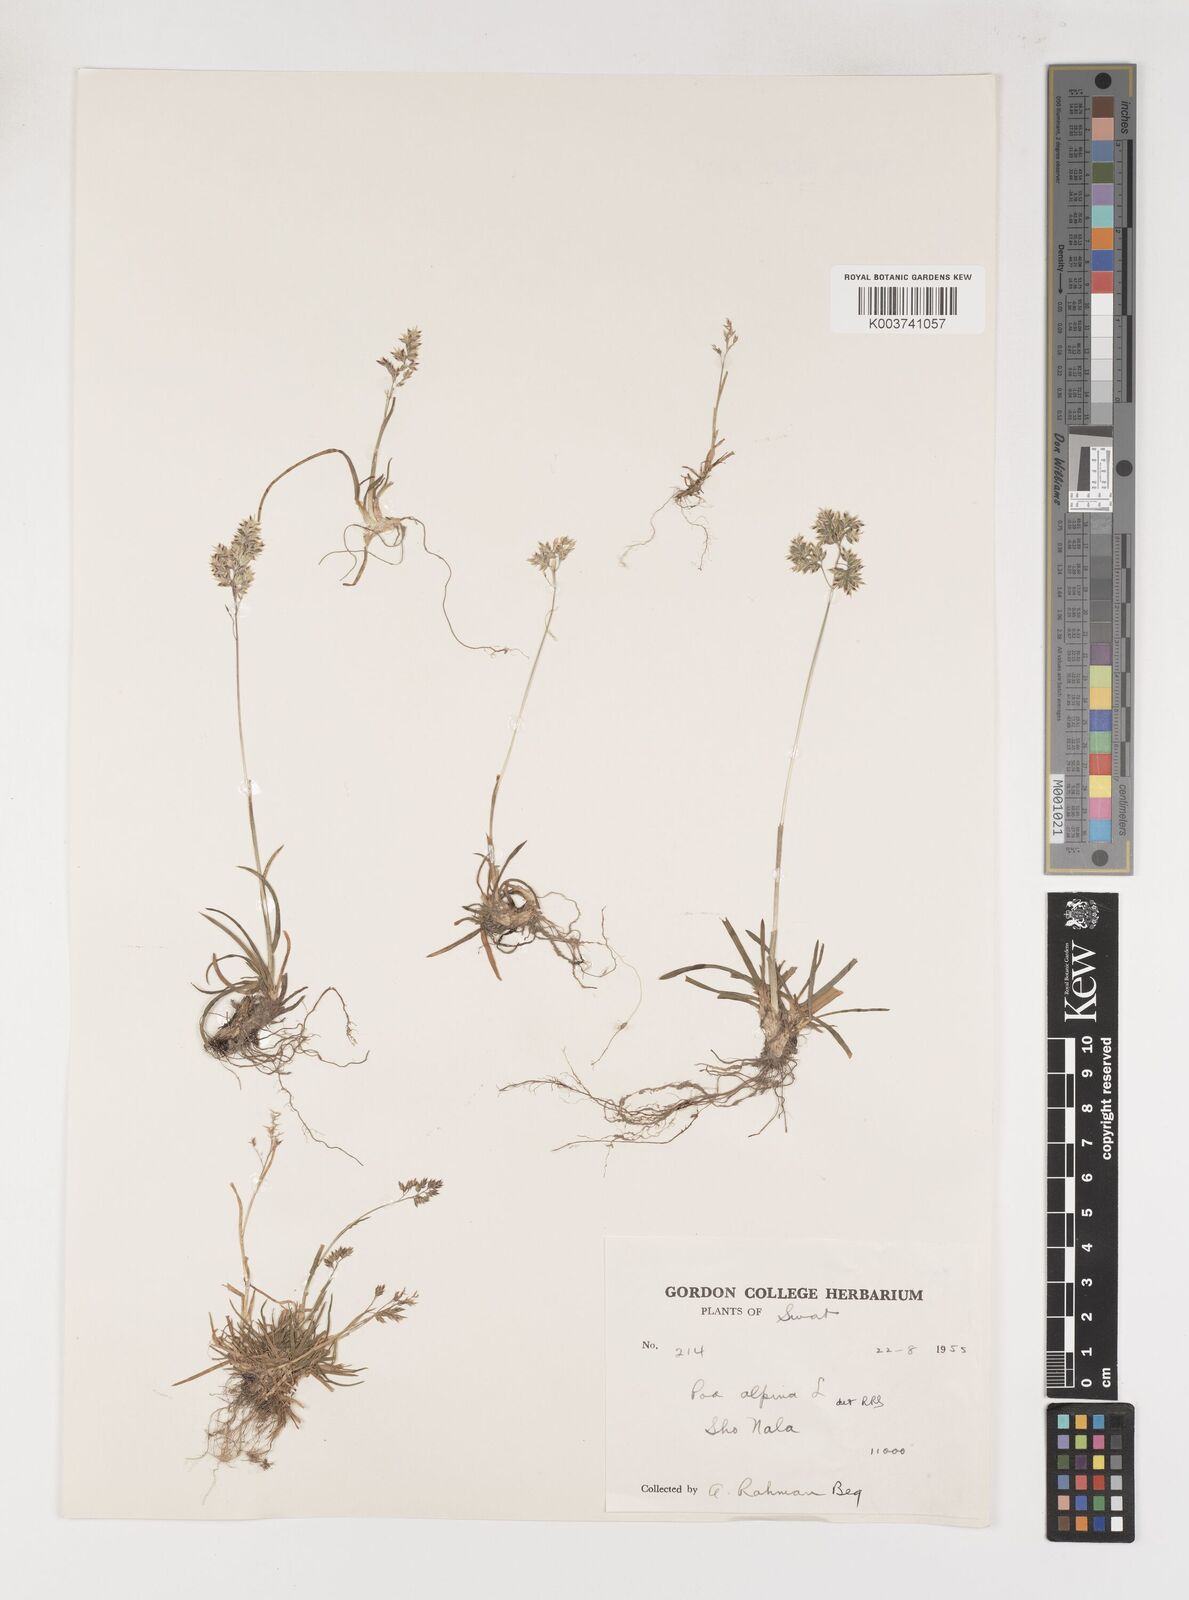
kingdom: Plantae
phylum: Tracheophyta
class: Liliopsida
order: Poales
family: Poaceae
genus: Poa
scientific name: Poa alpina
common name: Alpine bluegrass
